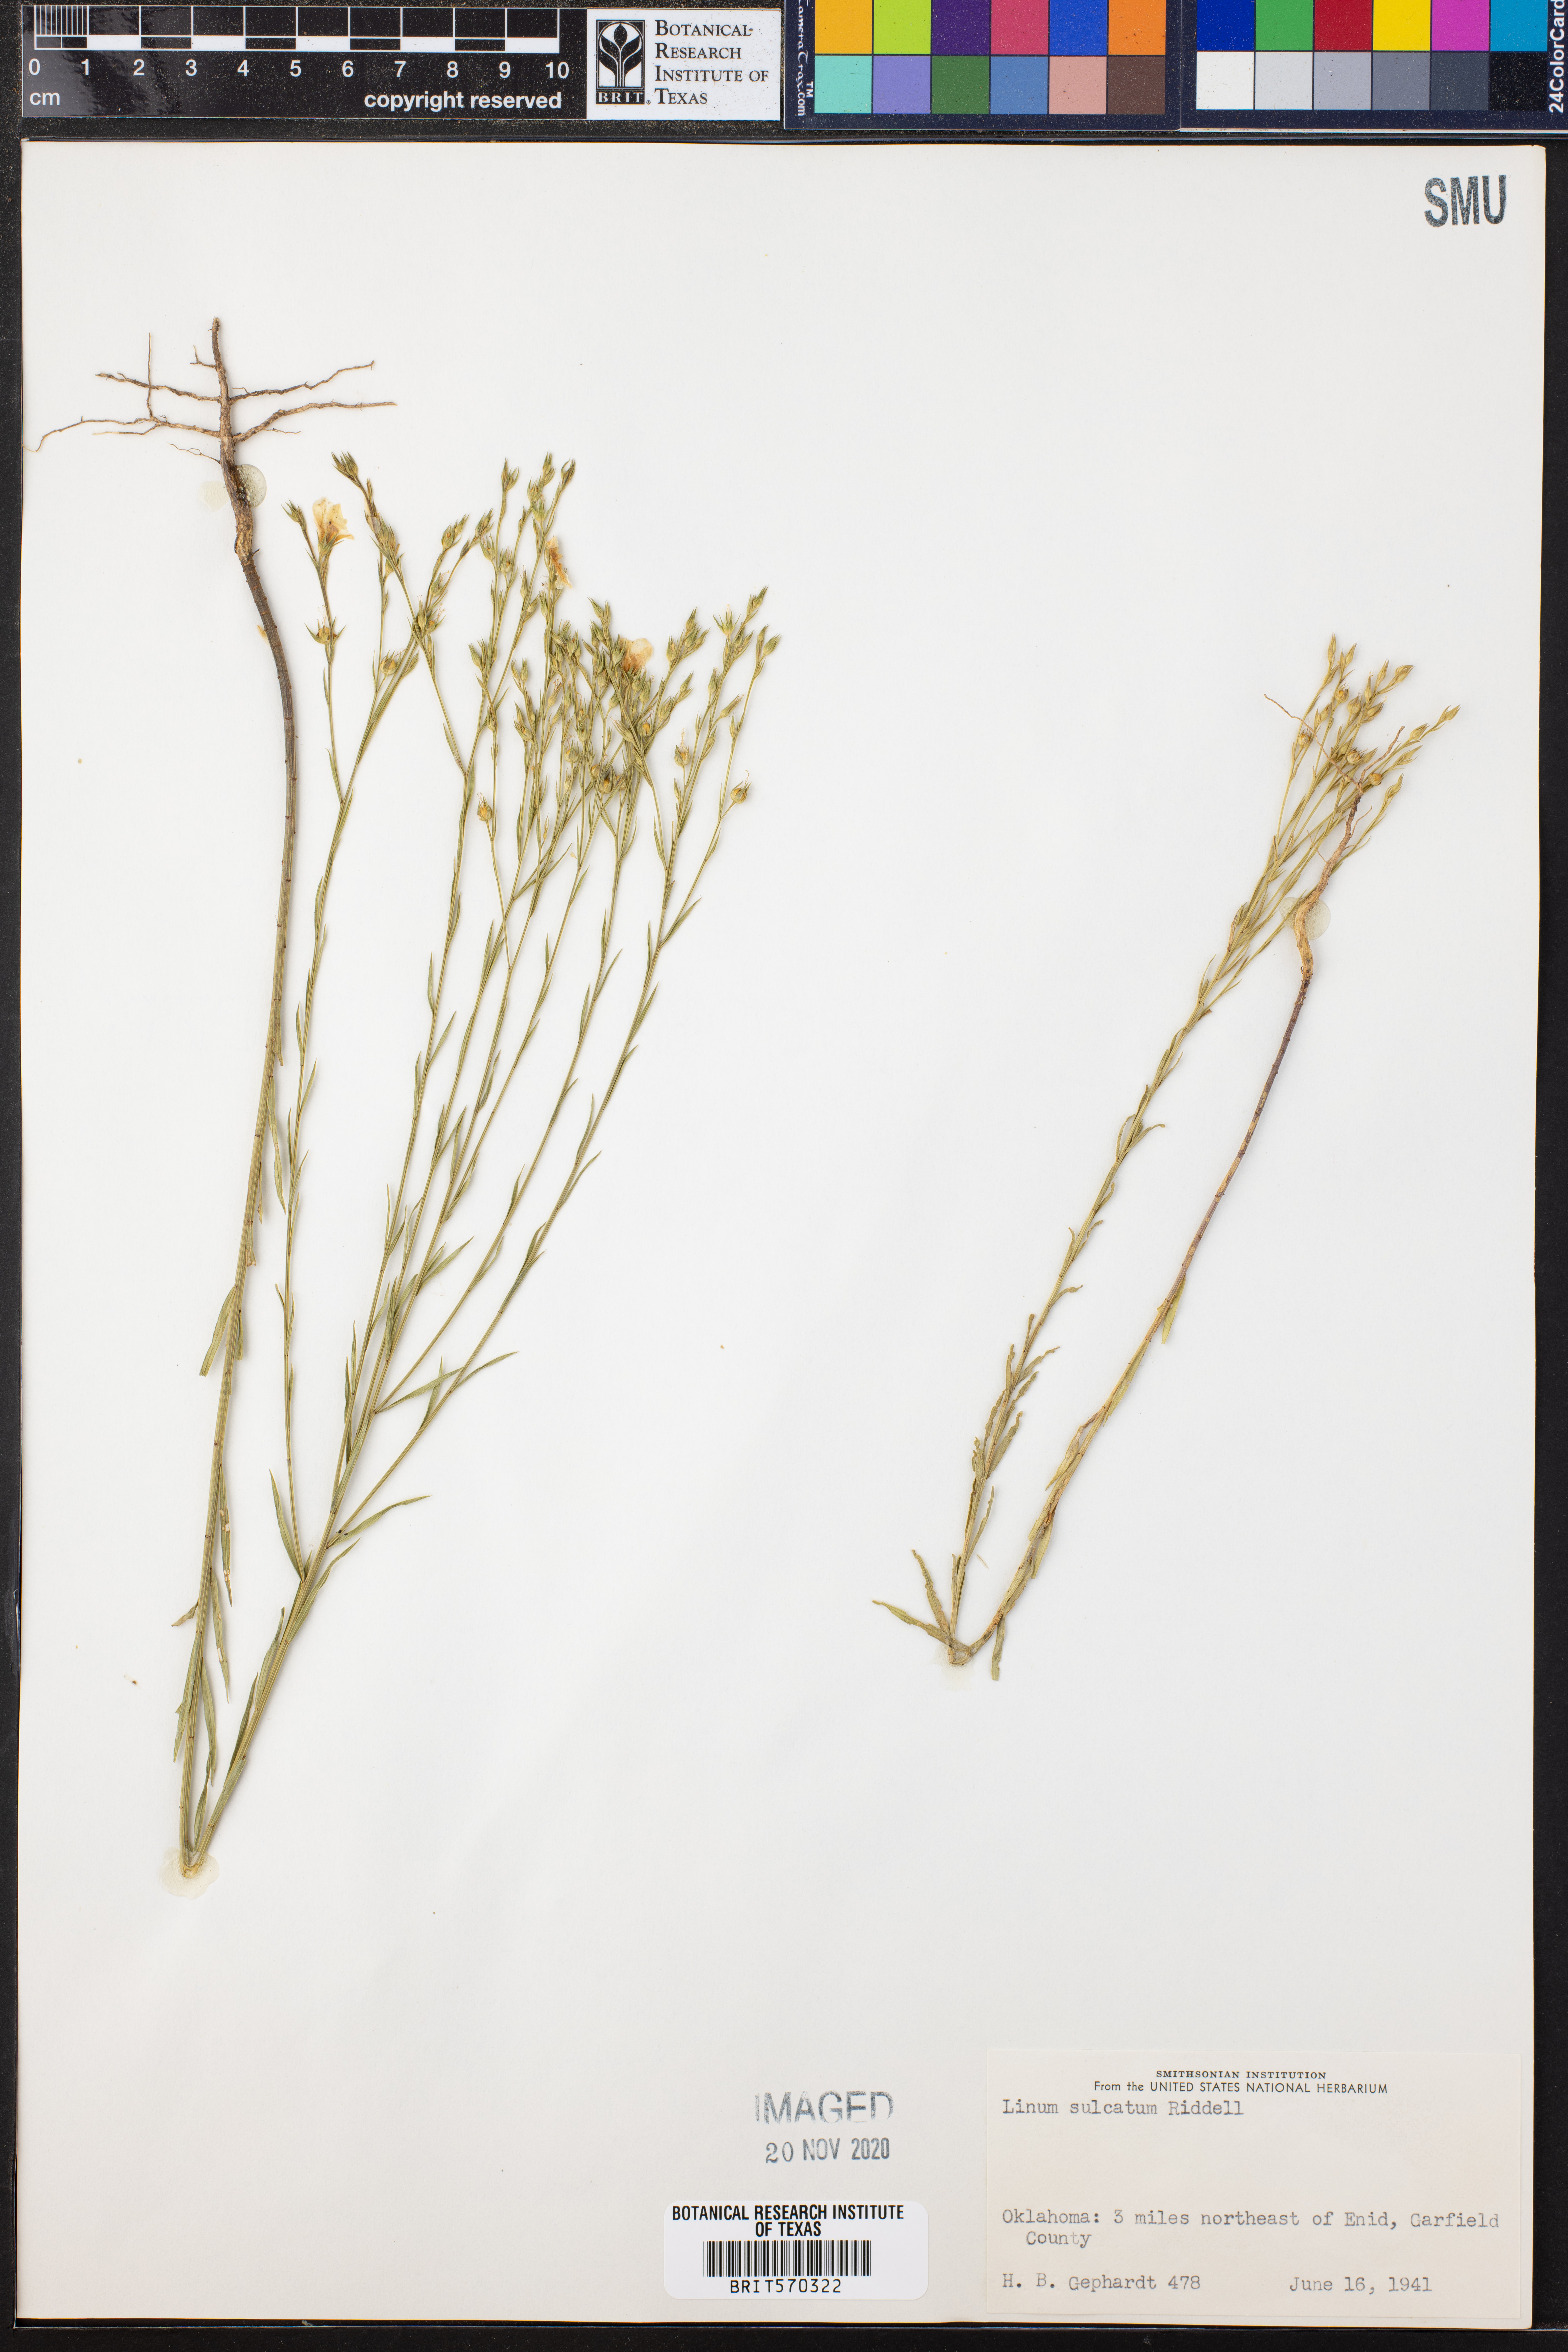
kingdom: Plantae
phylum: Tracheophyta
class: Magnoliopsida
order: Malpighiales
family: Linaceae
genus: Linum
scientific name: Linum sulcatum
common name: Grooved flax
